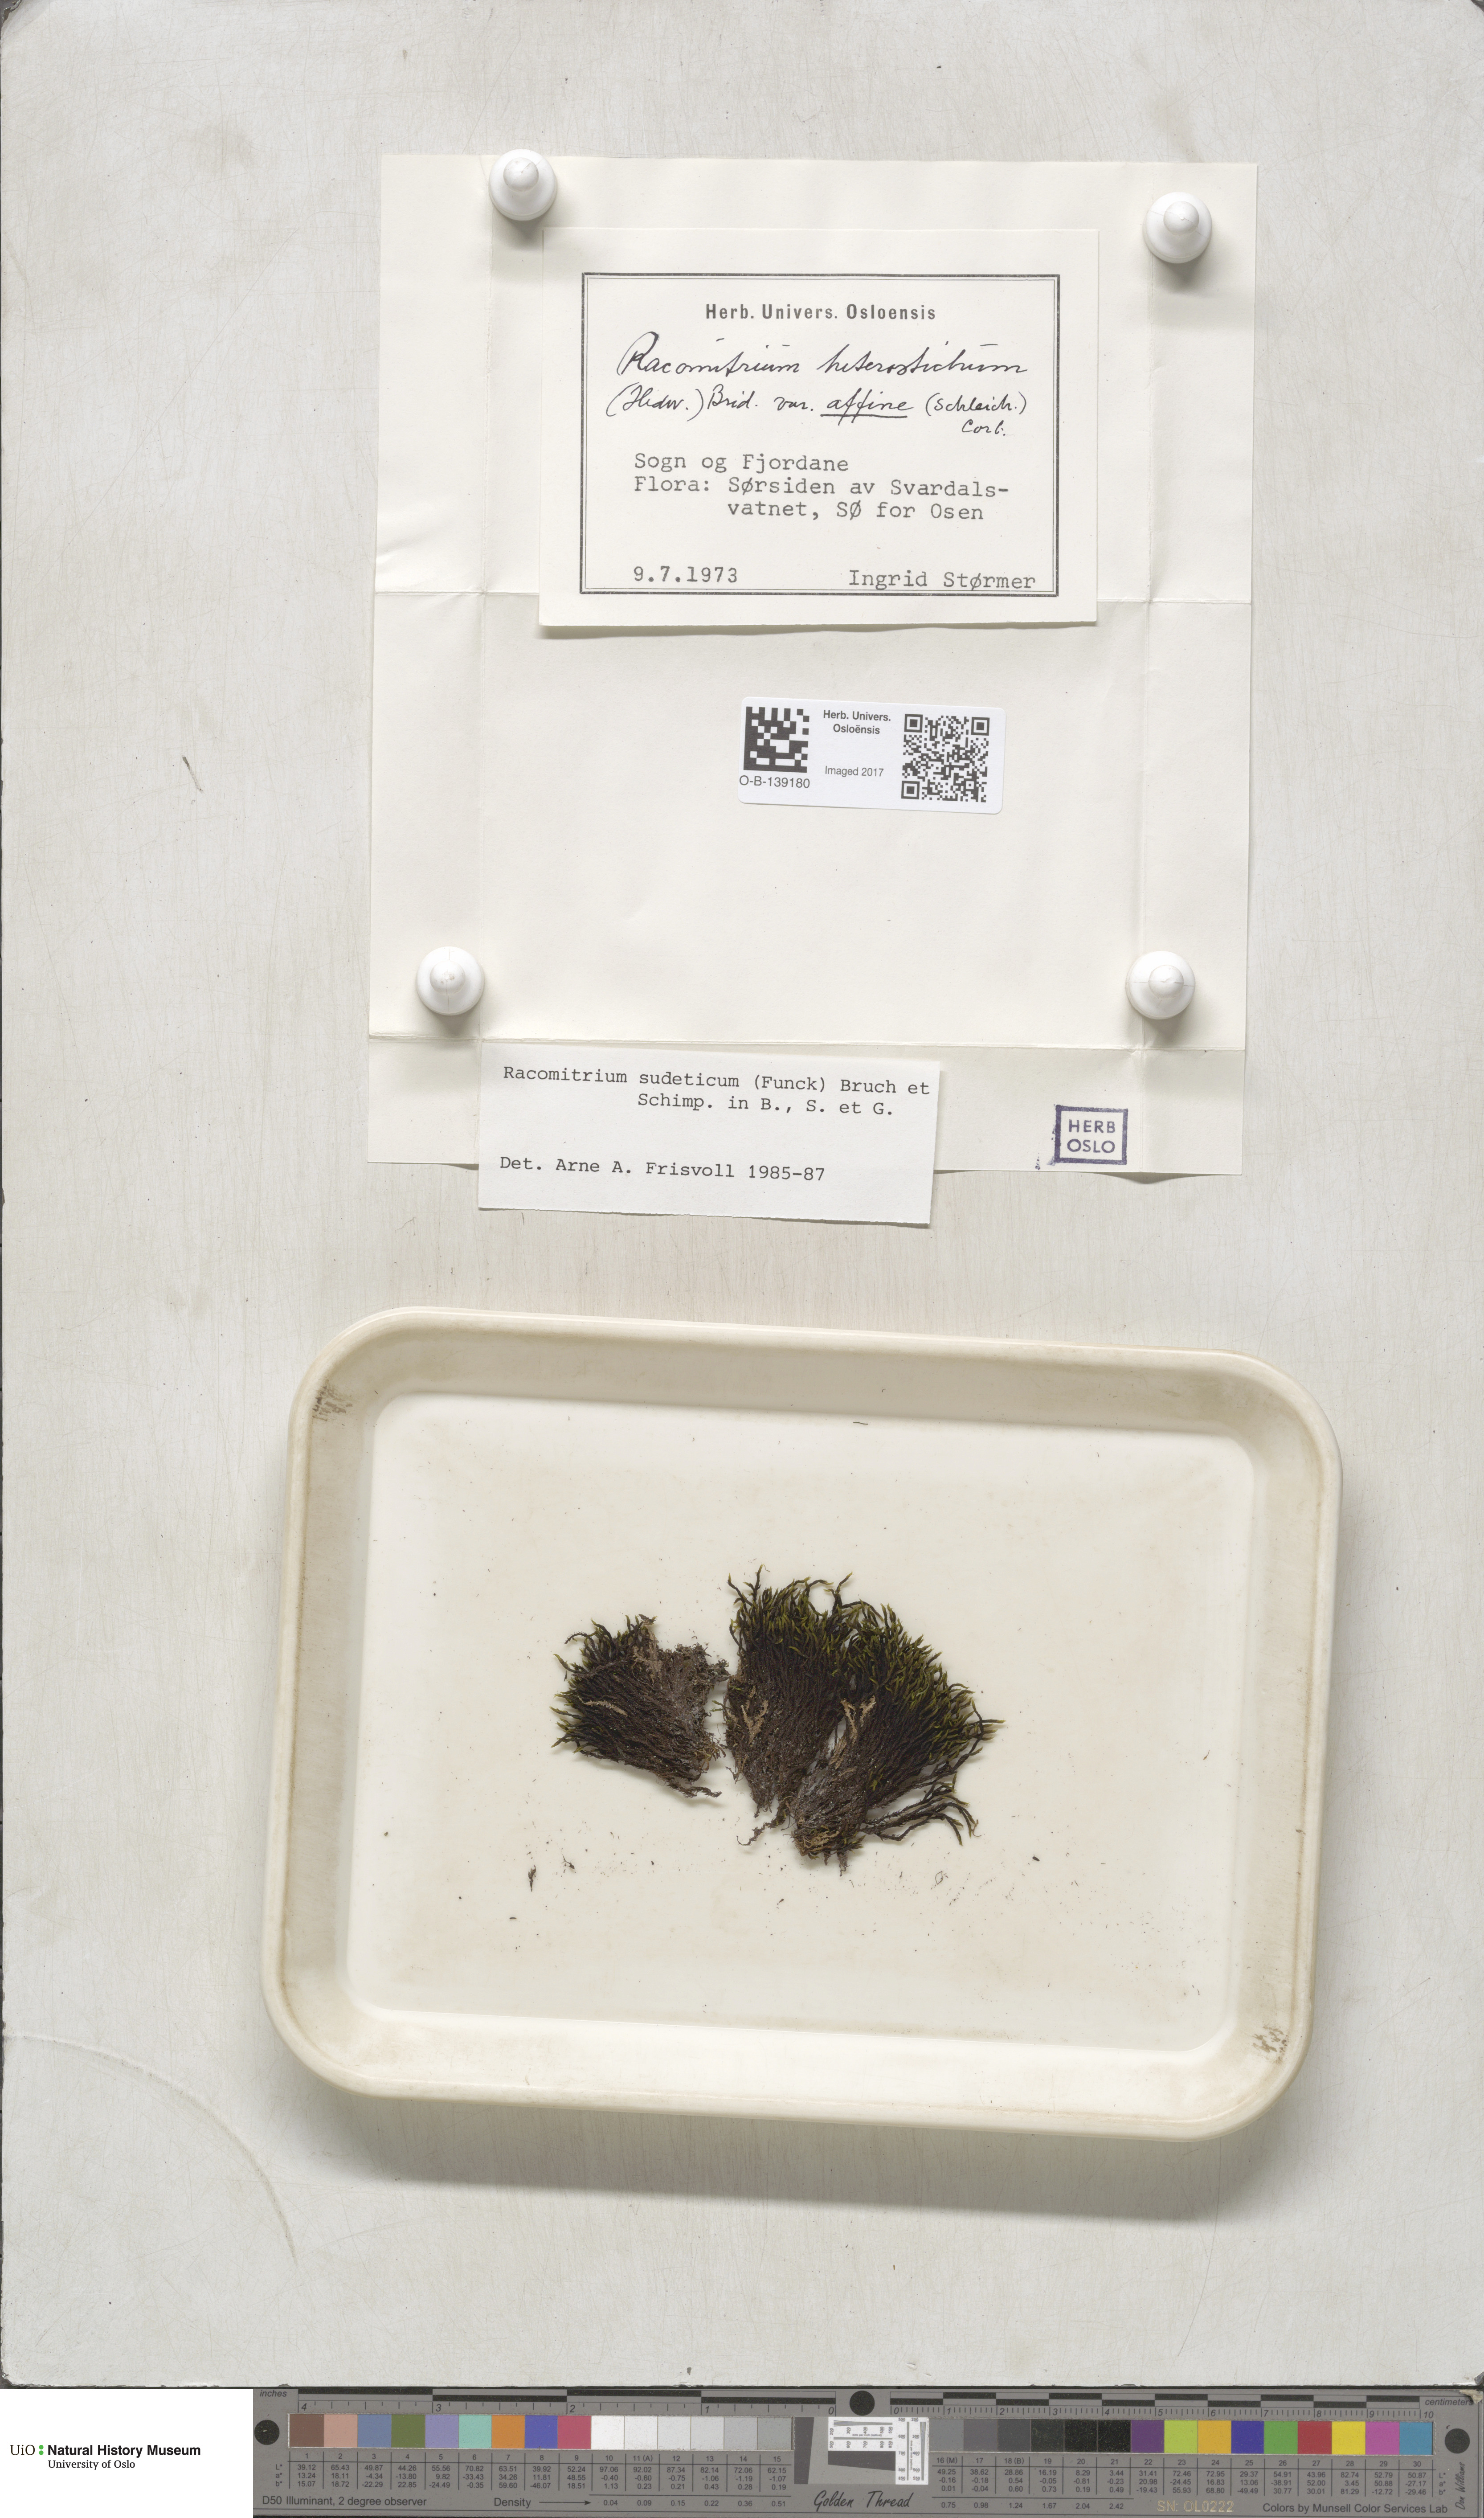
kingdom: Plantae
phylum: Bryophyta
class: Bryopsida
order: Grimmiales
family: Grimmiaceae
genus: Bucklandiella
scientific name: Bucklandiella sudetica
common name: Slender fringe-moss
